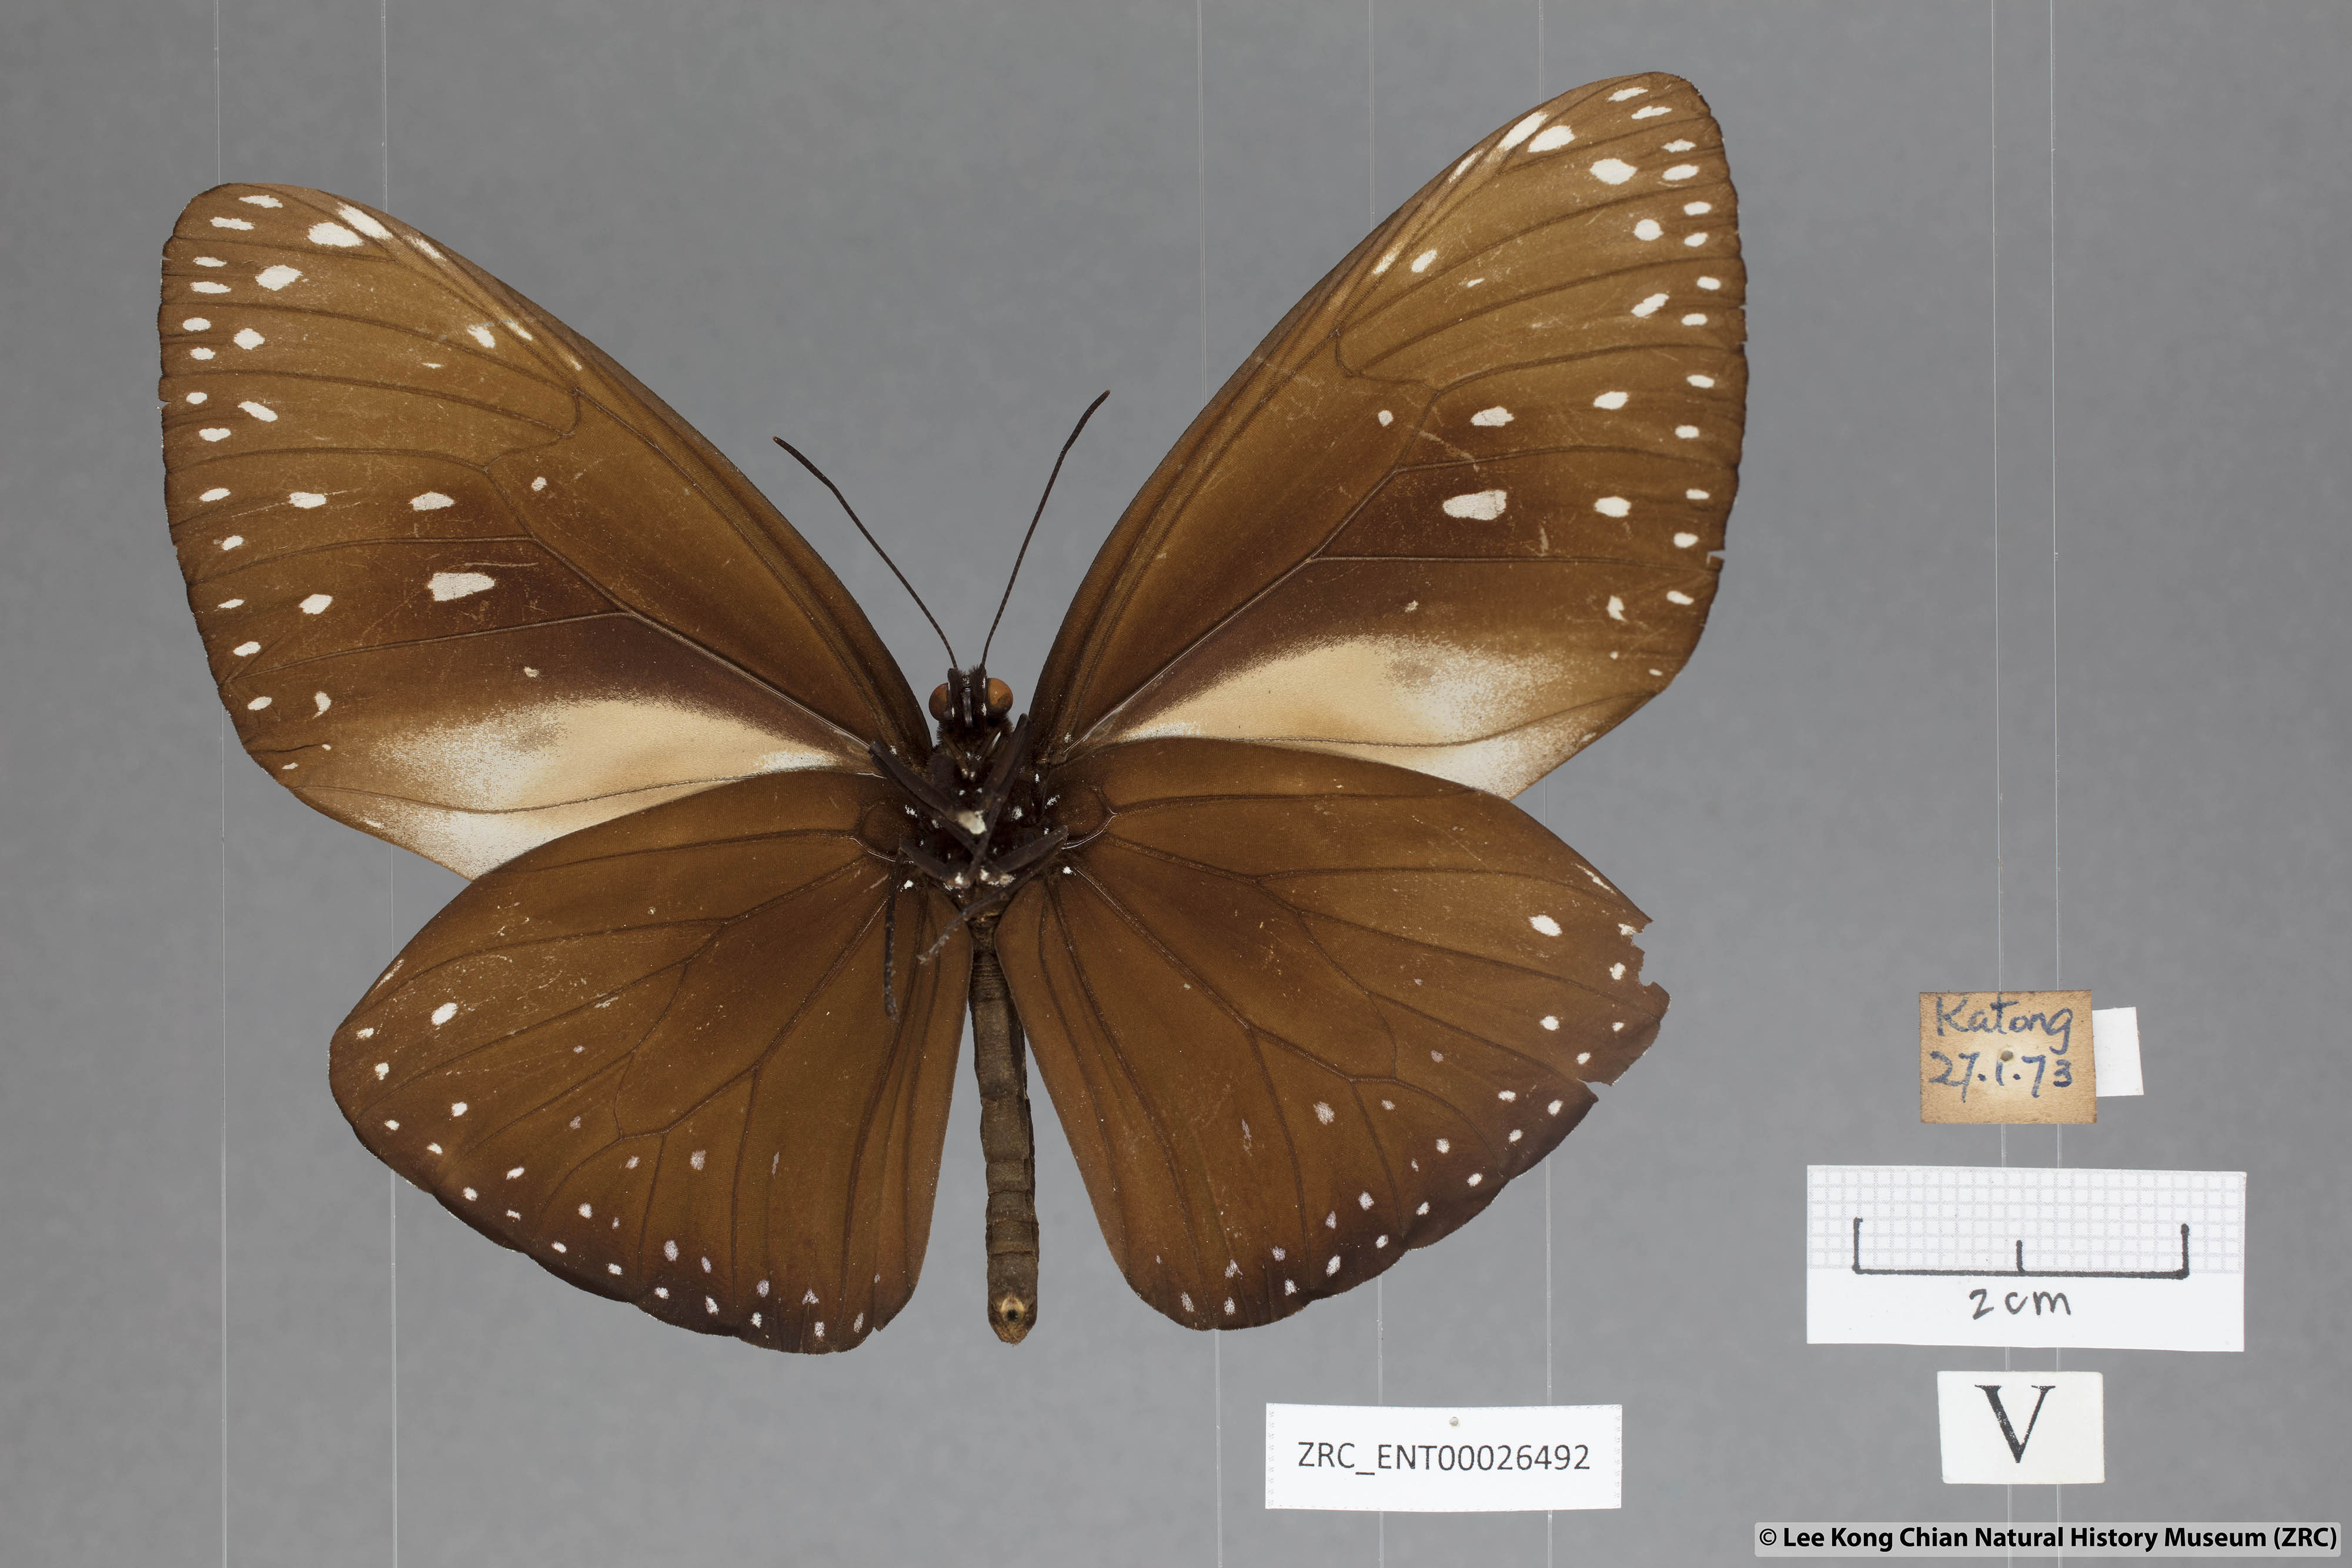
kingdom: Animalia
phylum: Arthropoda
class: Insecta
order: Lepidoptera
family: Nymphalidae
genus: Euploea
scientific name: Euploea phaenareta
